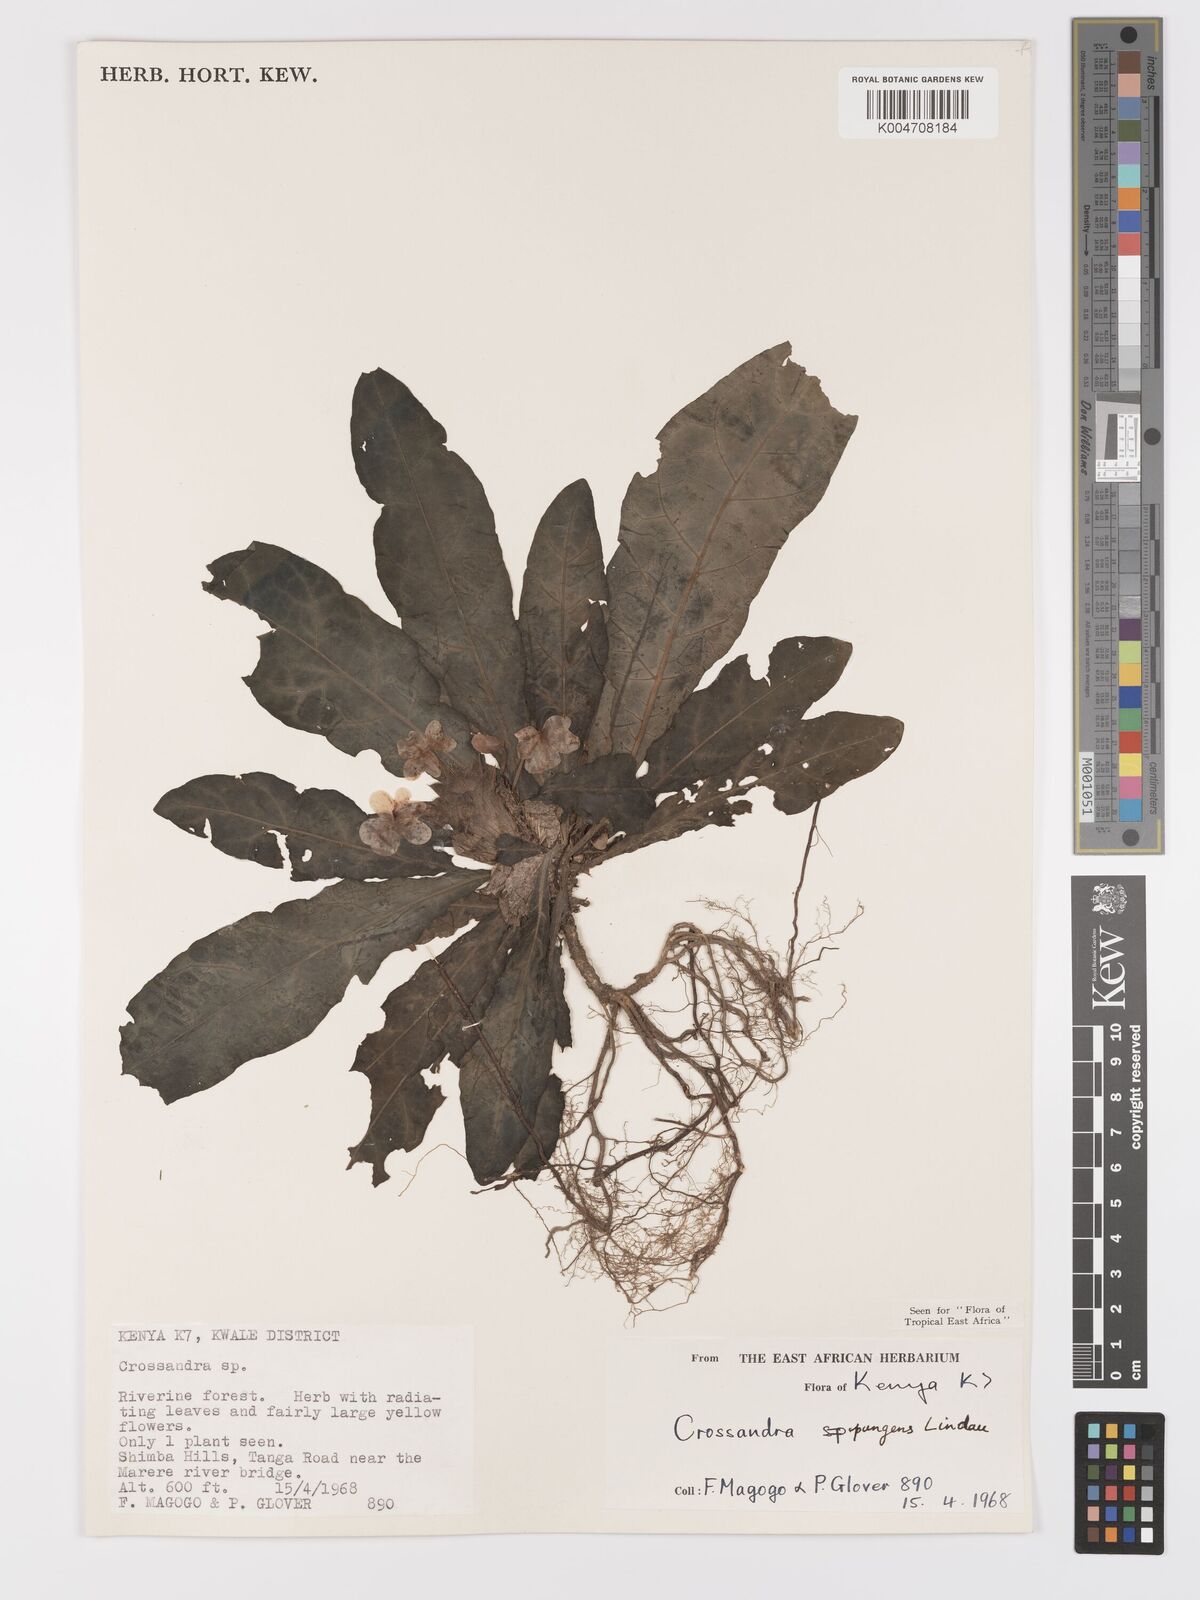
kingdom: Plantae
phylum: Tracheophyta
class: Magnoliopsida
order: Lamiales
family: Acanthaceae
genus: Crossandra
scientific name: Crossandra pungens
